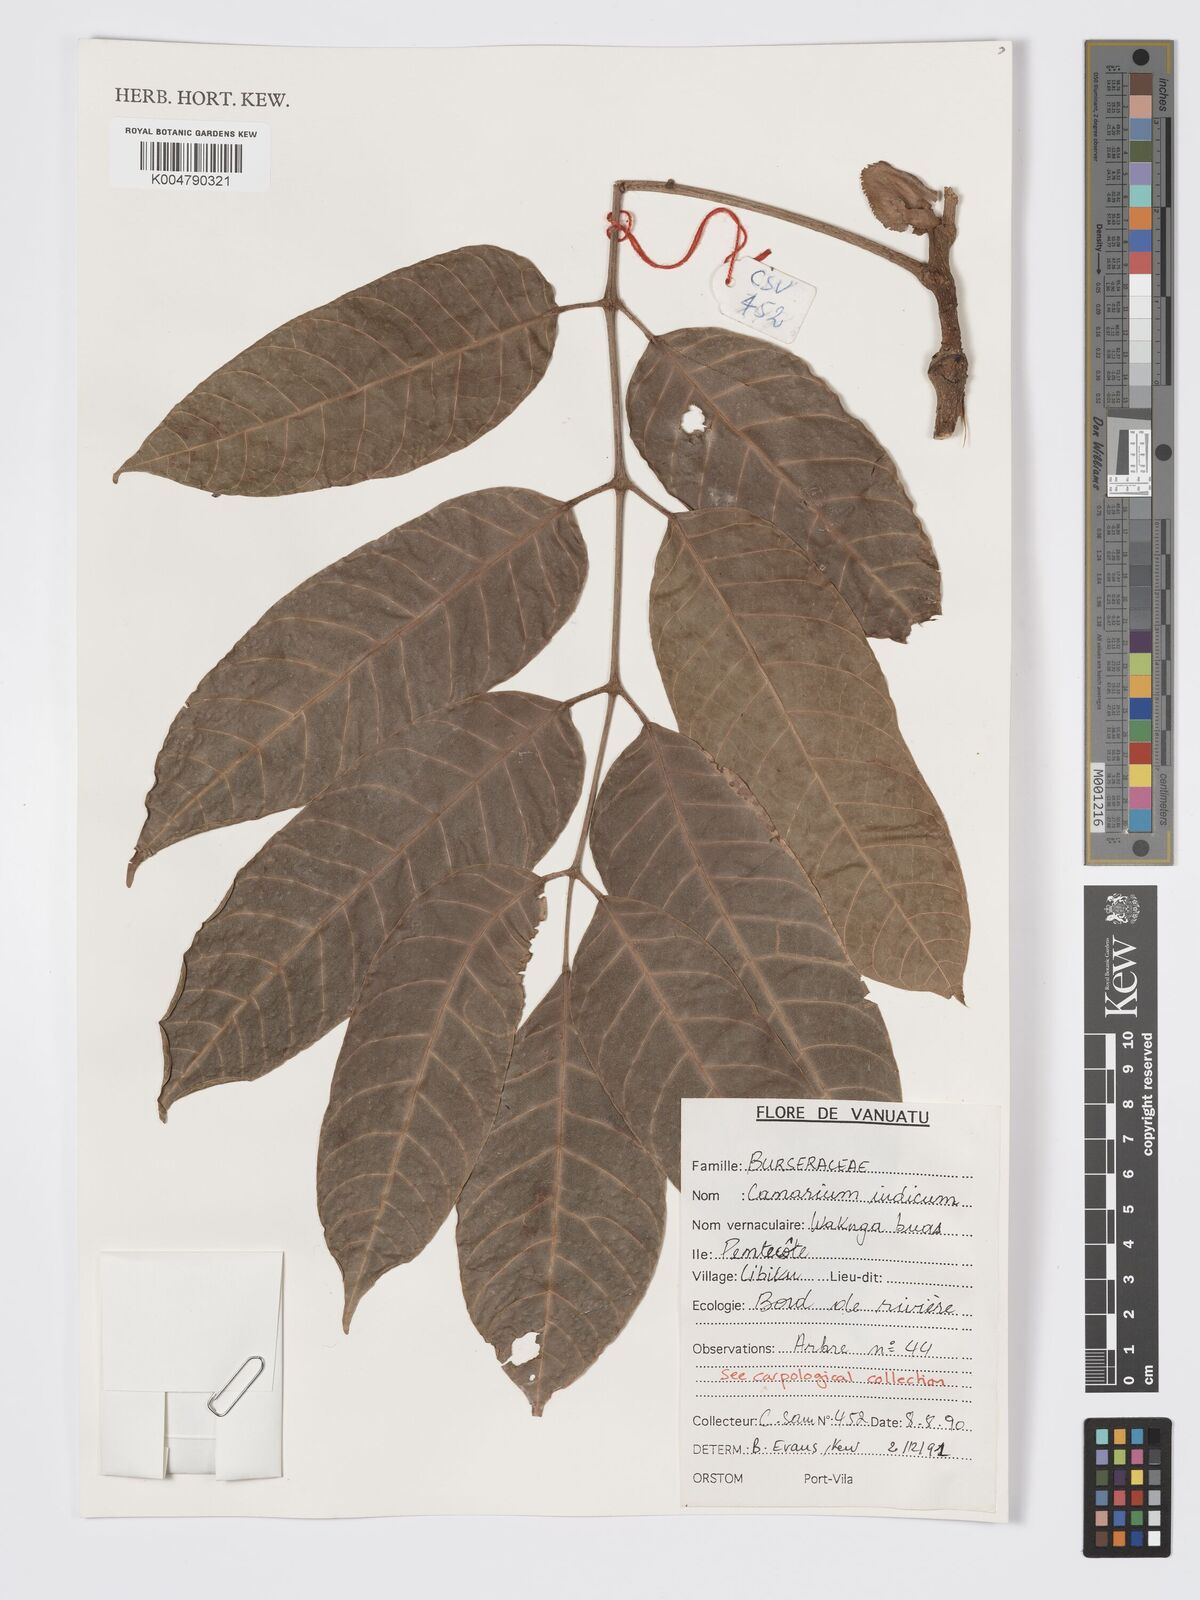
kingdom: Plantae
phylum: Tracheophyta
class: Magnoliopsida
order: Sapindales
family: Burseraceae
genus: Canarium
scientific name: Canarium indicum
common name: Canarium-nut
